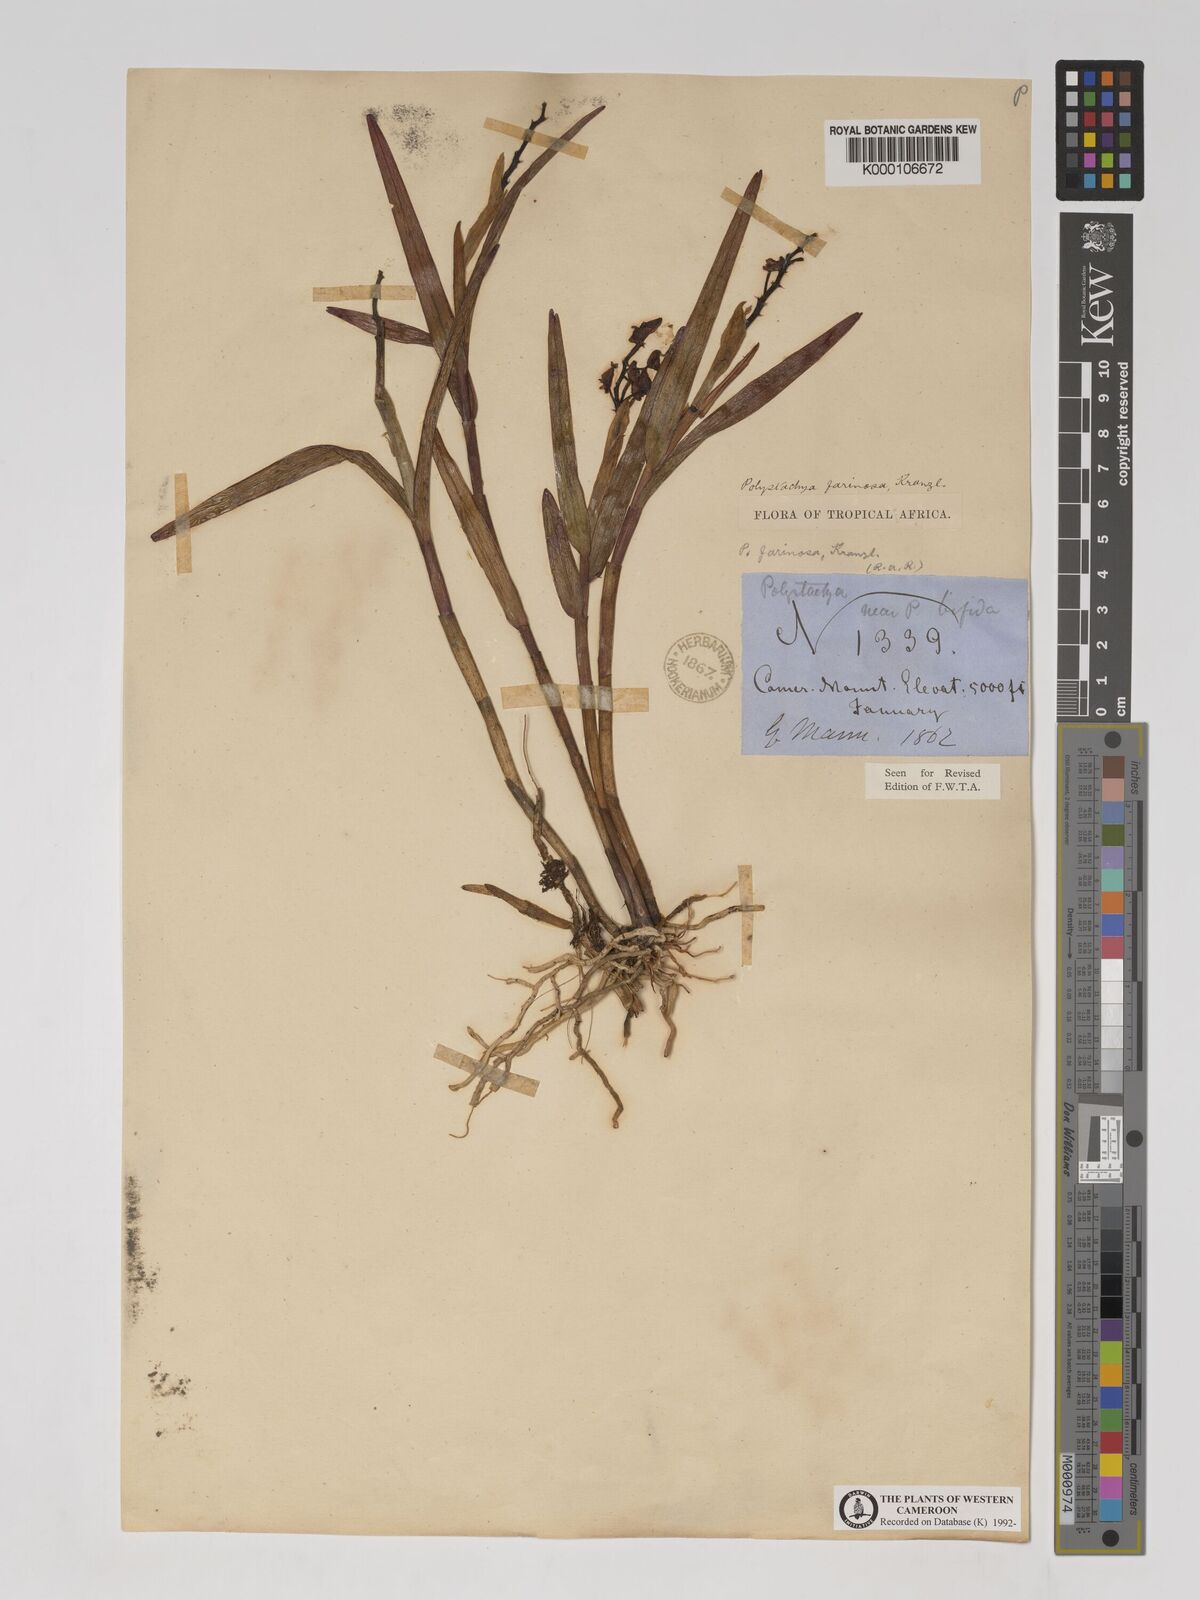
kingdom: Plantae
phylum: Tracheophyta
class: Liliopsida
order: Asparagales
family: Orchidaceae
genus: Polystachya
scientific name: Polystachya bifida
